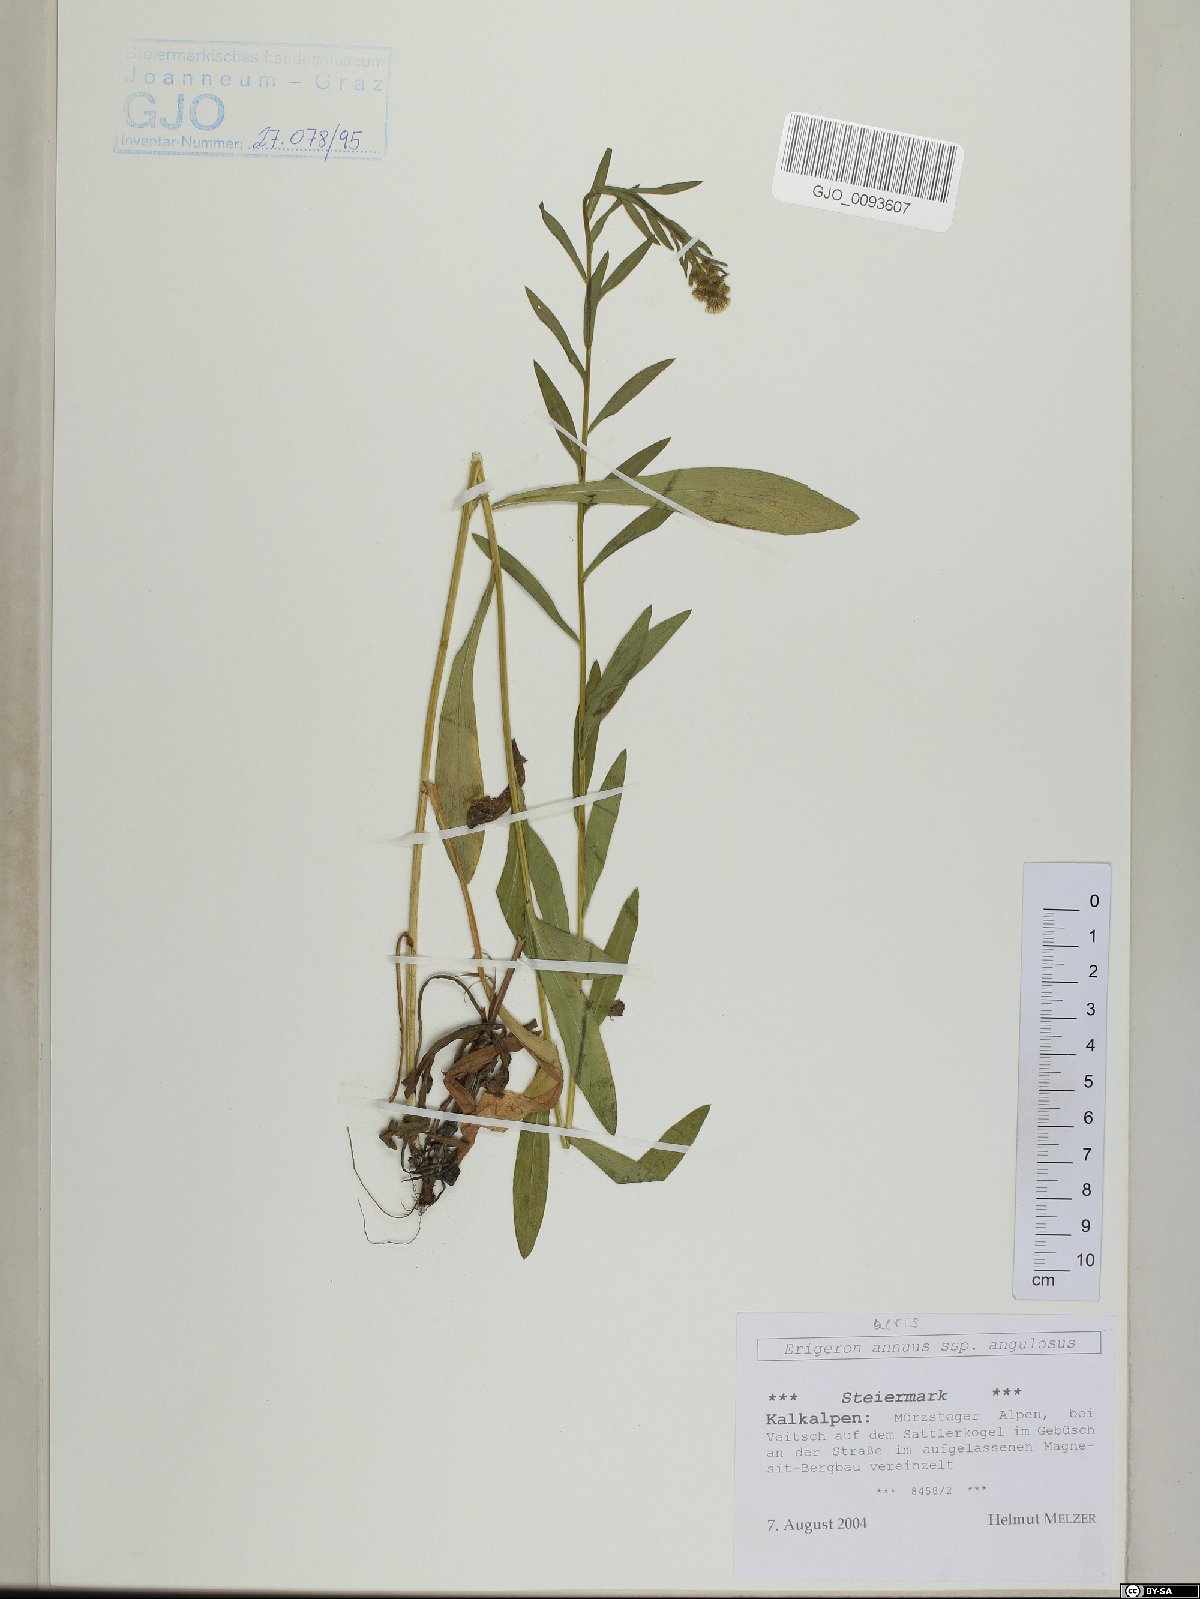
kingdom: Plantae
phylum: Tracheophyta
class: Magnoliopsida
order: Asterales
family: Asteraceae
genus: Erigeron
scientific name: Erigeron angulosus
